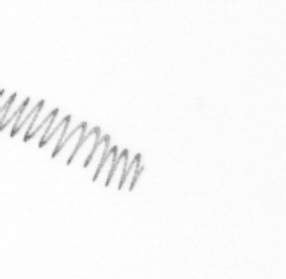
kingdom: Chromista
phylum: Ochrophyta
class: Bacillariophyceae
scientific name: Bacillariophyceae
